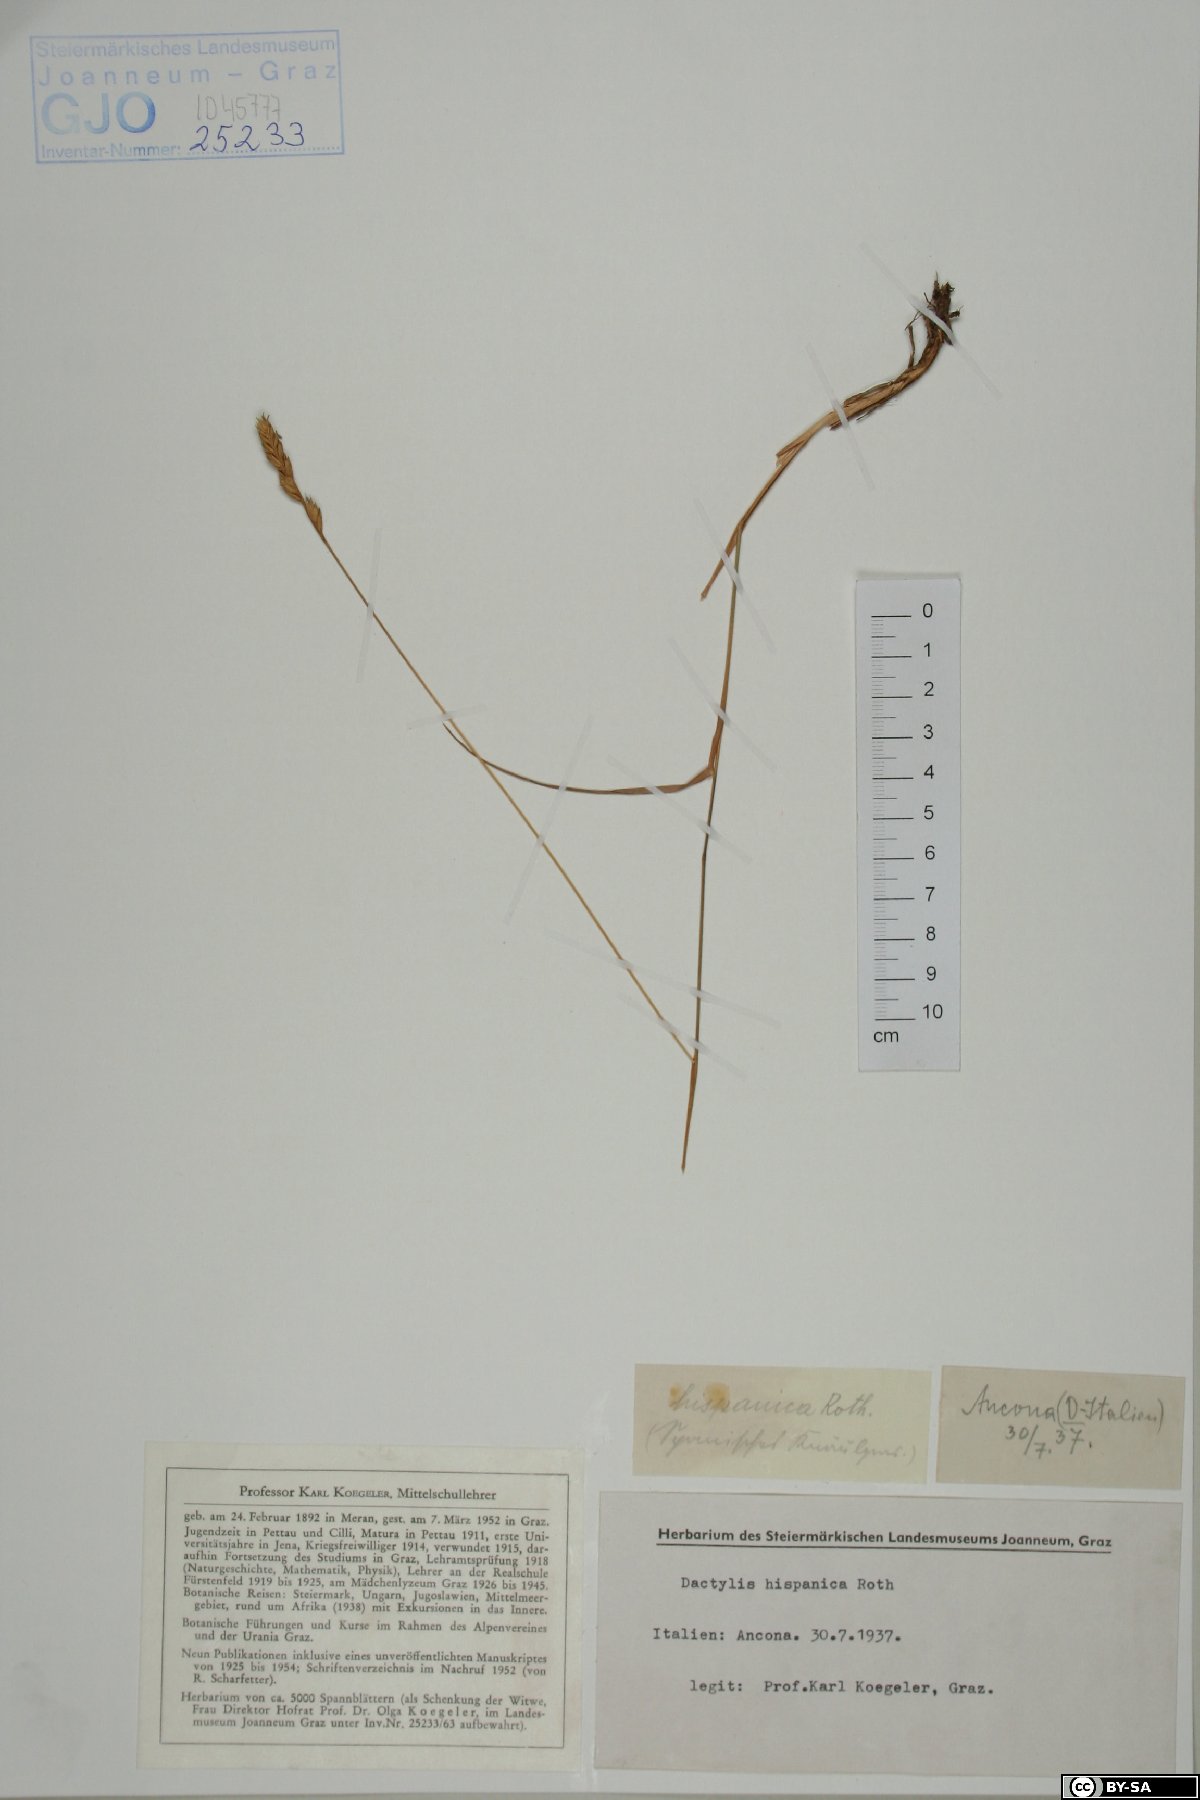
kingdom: Plantae
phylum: Tracheophyta
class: Liliopsida
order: Poales
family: Poaceae
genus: Dactylis
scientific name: Dactylis glomerata
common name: Orchardgrass
